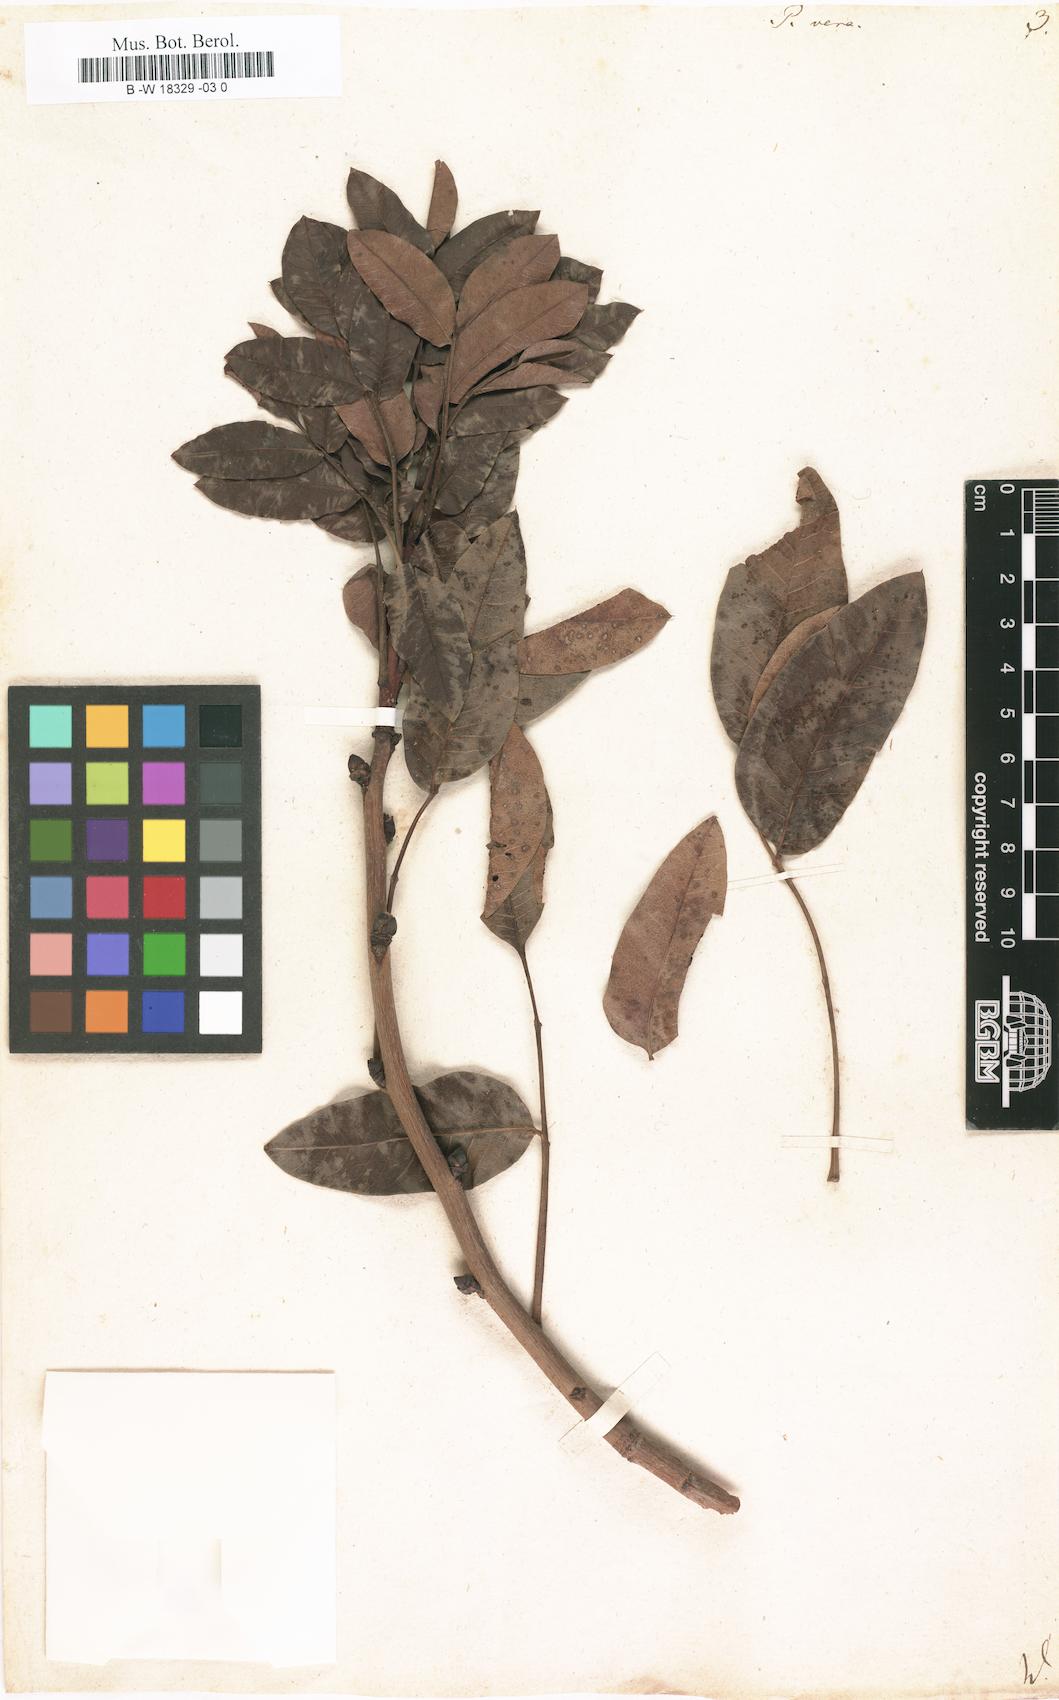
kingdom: Plantae
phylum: Tracheophyta
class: Magnoliopsida
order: Sapindales
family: Anacardiaceae
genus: Pistacia
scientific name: Pistacia vera
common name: Pistachio
